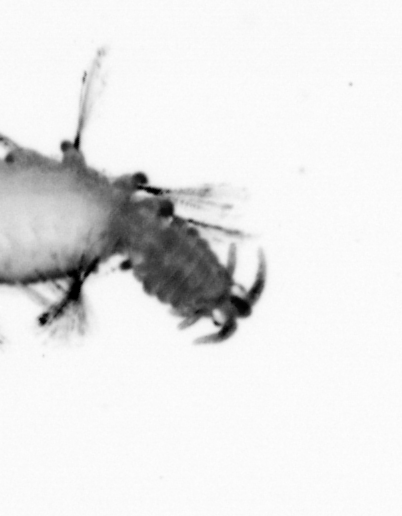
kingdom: Animalia
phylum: Annelida
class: Polychaeta
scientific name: Polychaeta
